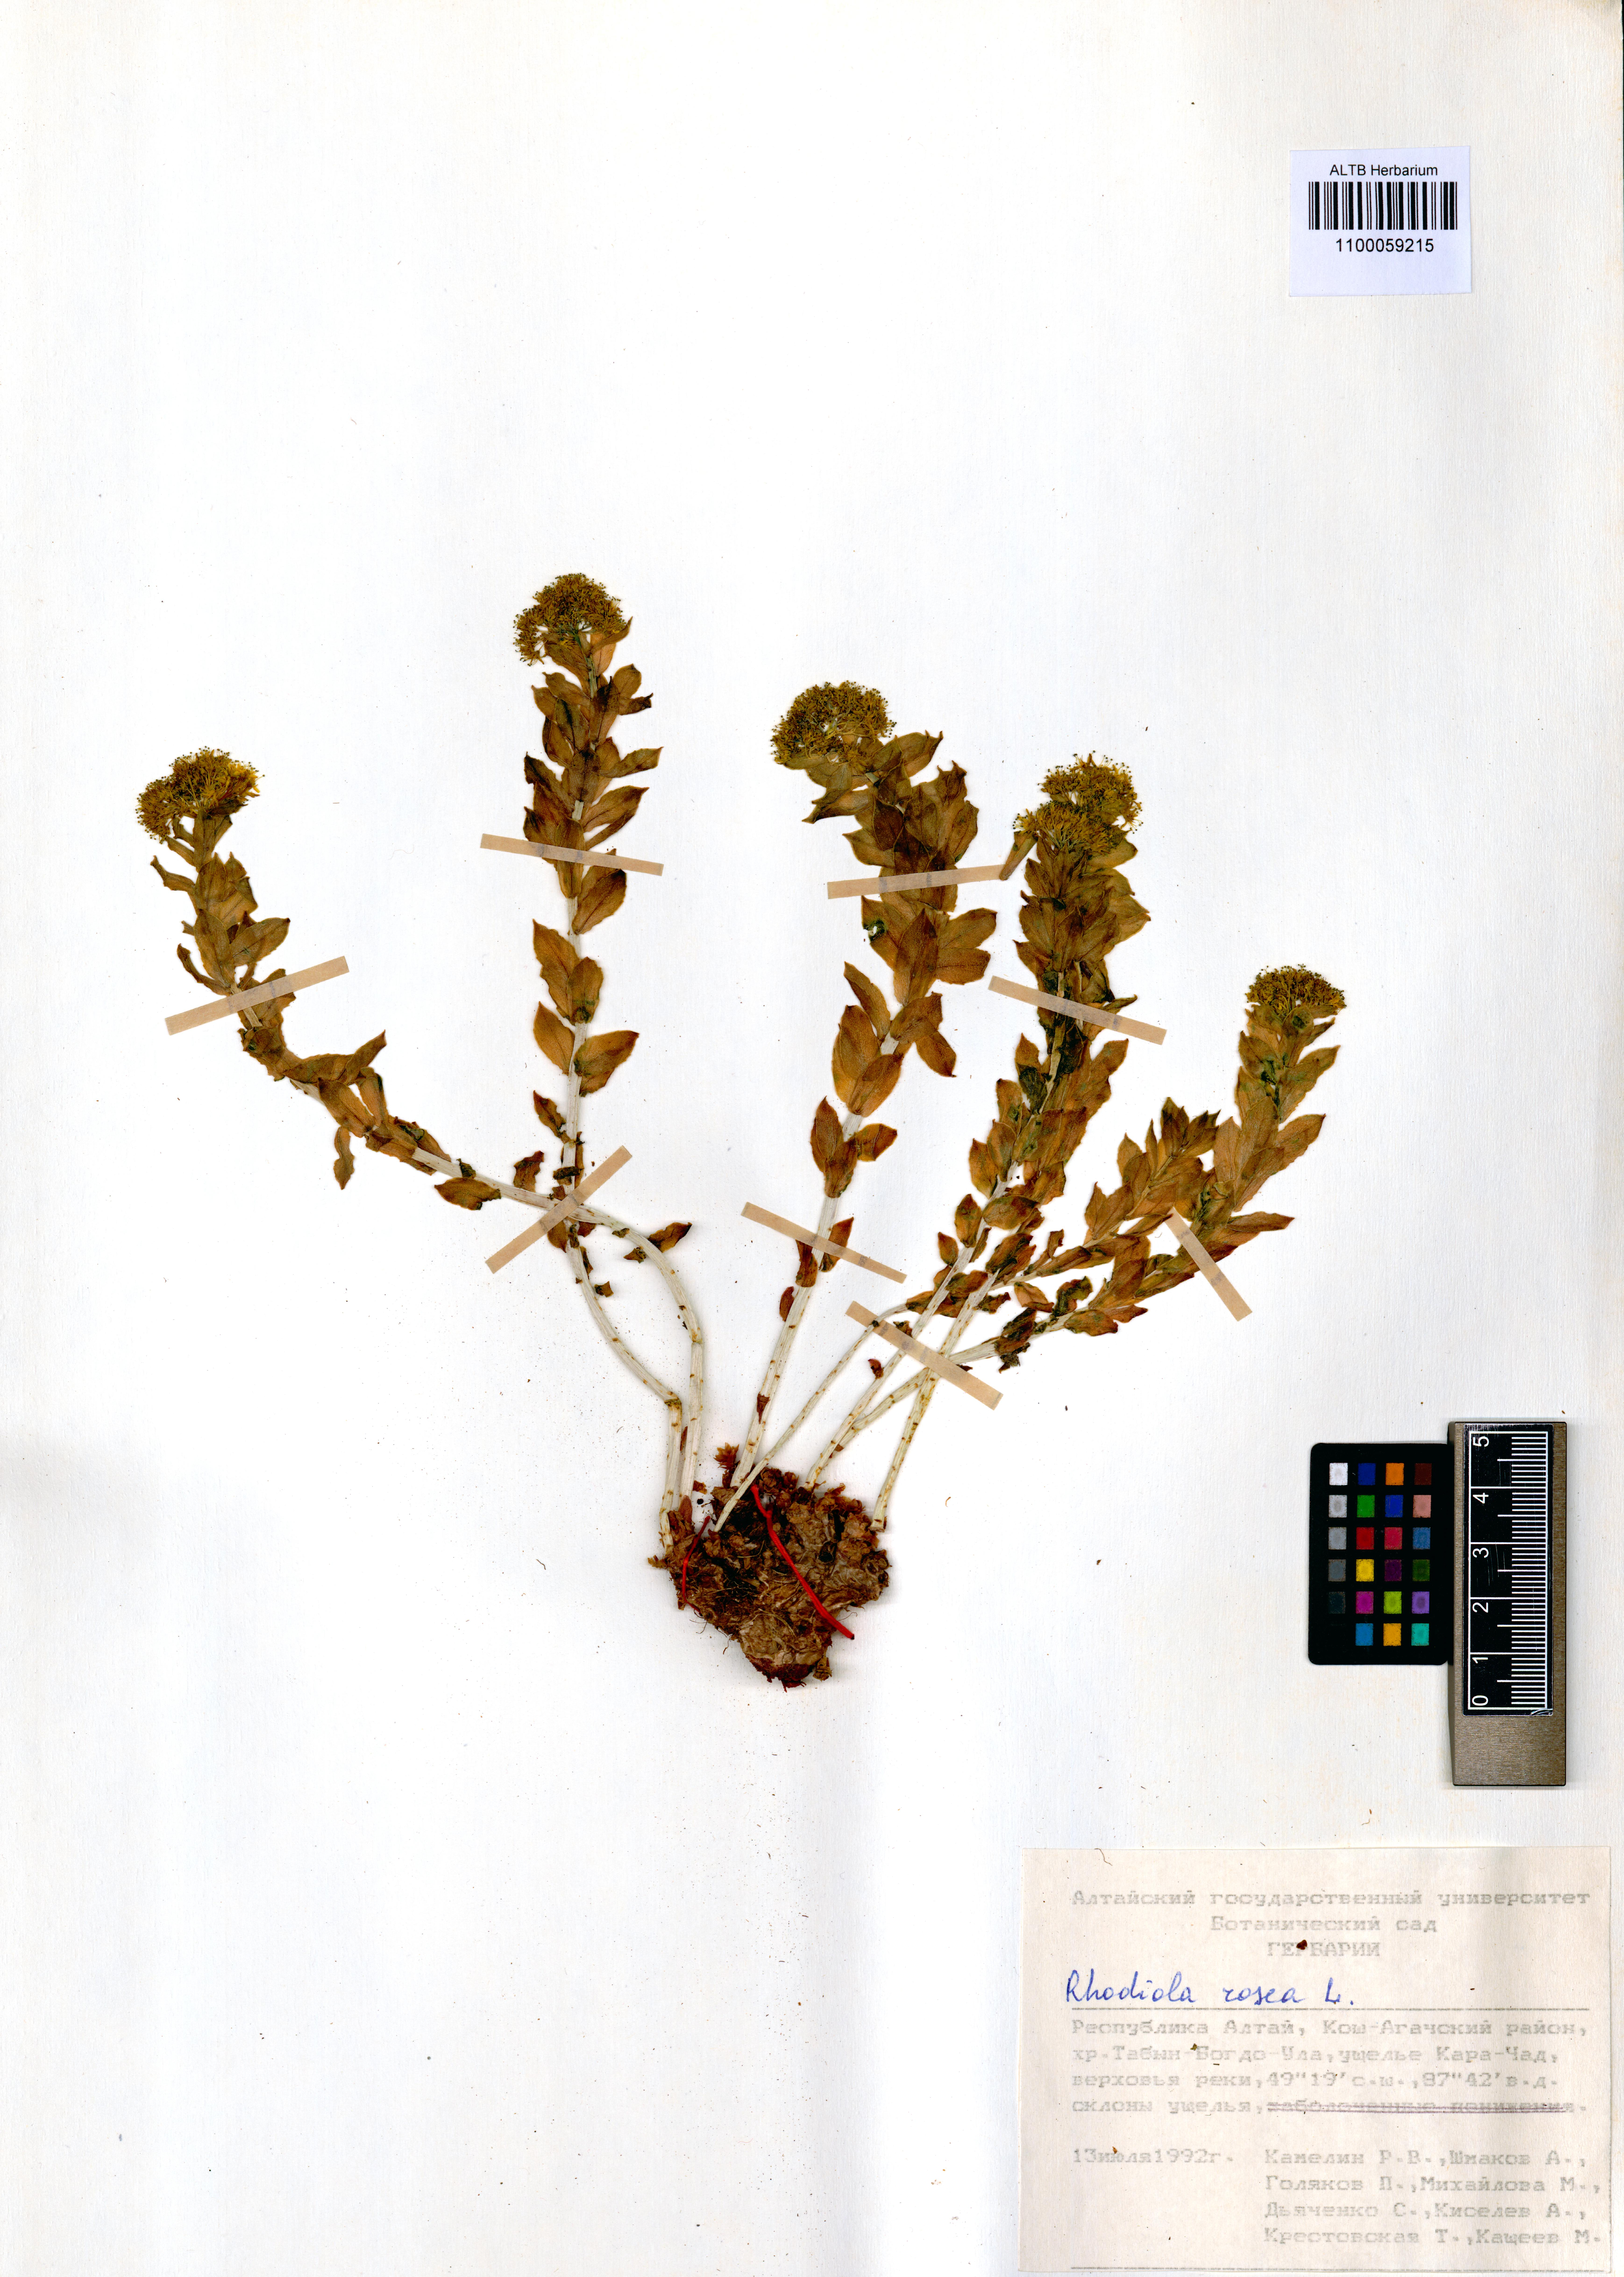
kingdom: Plantae
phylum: Tracheophyta
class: Magnoliopsida
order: Saxifragales
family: Crassulaceae
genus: Rhodiola
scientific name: Rhodiola rosea
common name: Roseroot
